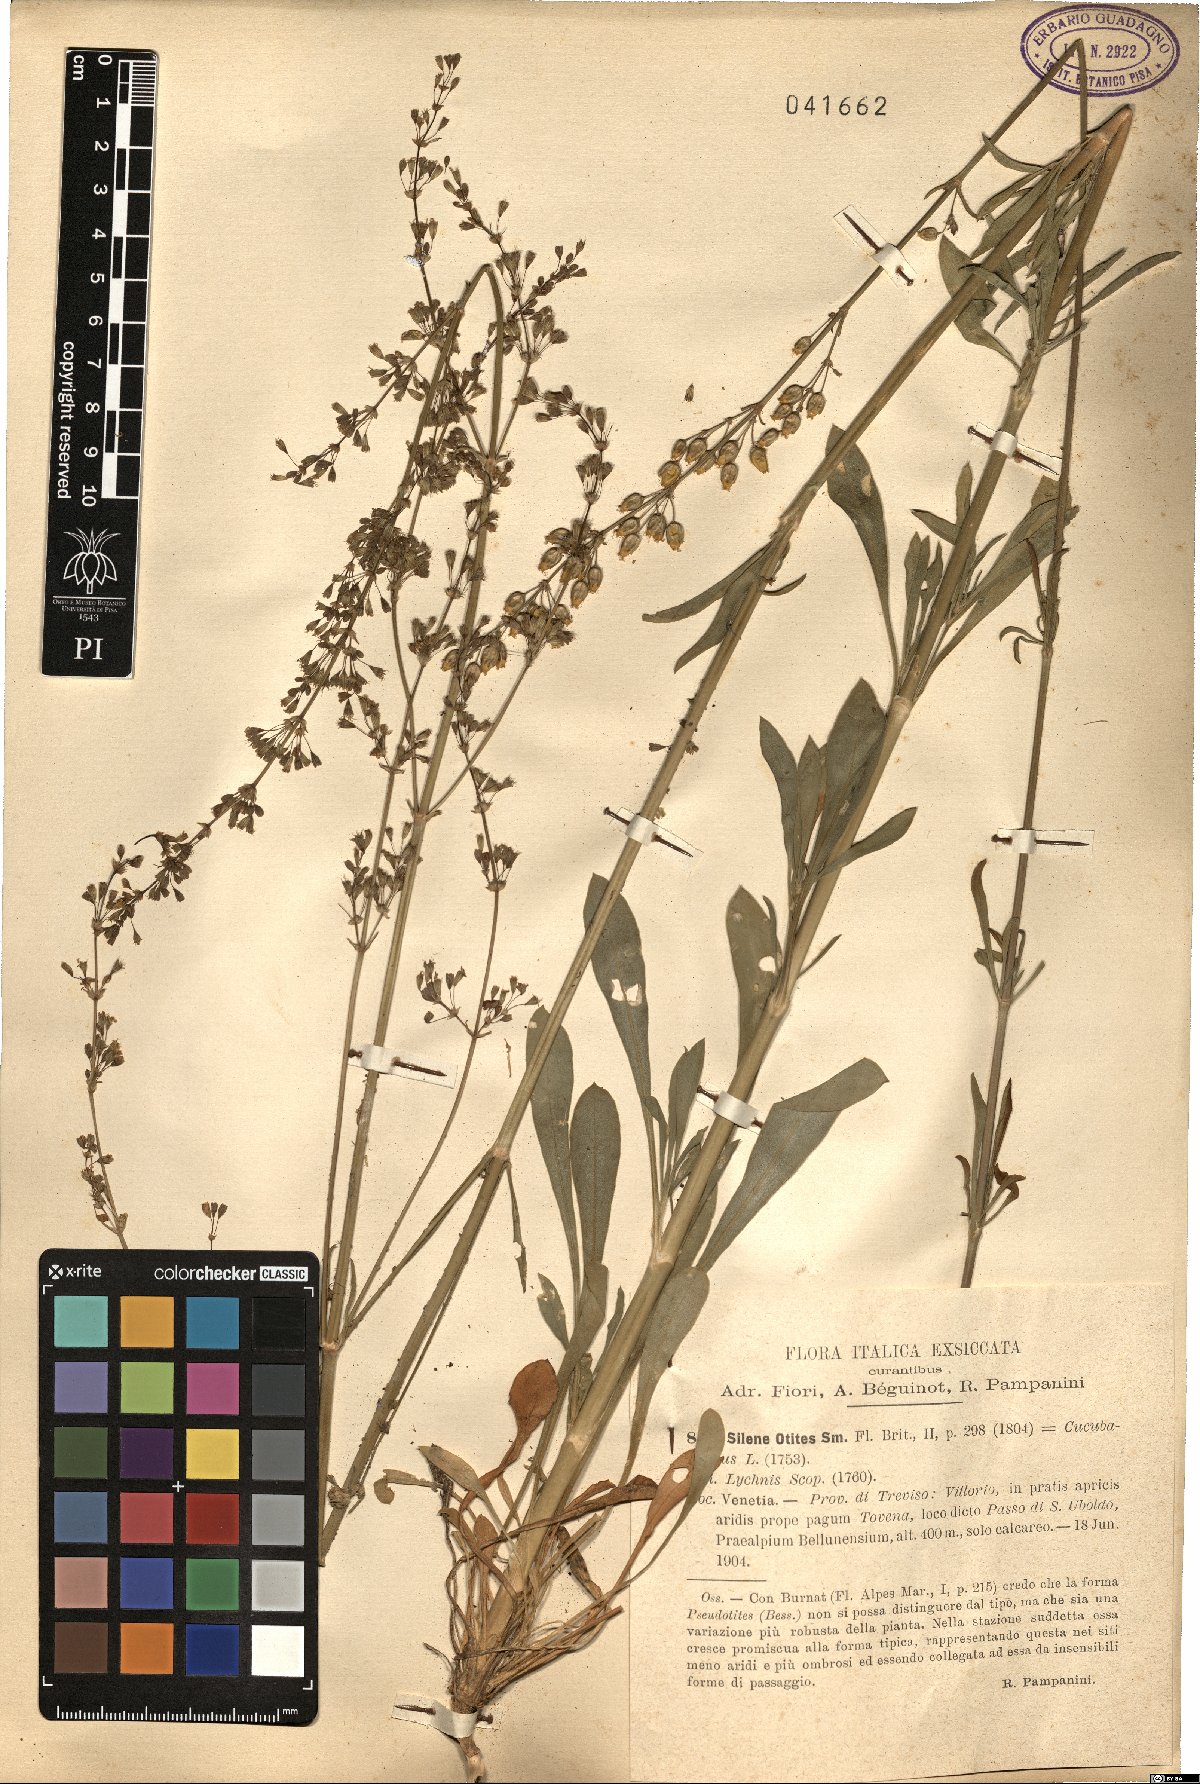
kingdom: Plantae
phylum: Tracheophyta
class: Magnoliopsida
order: Caryophyllales
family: Caryophyllaceae
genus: Silene
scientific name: Silene otites
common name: Spanish catchfly
